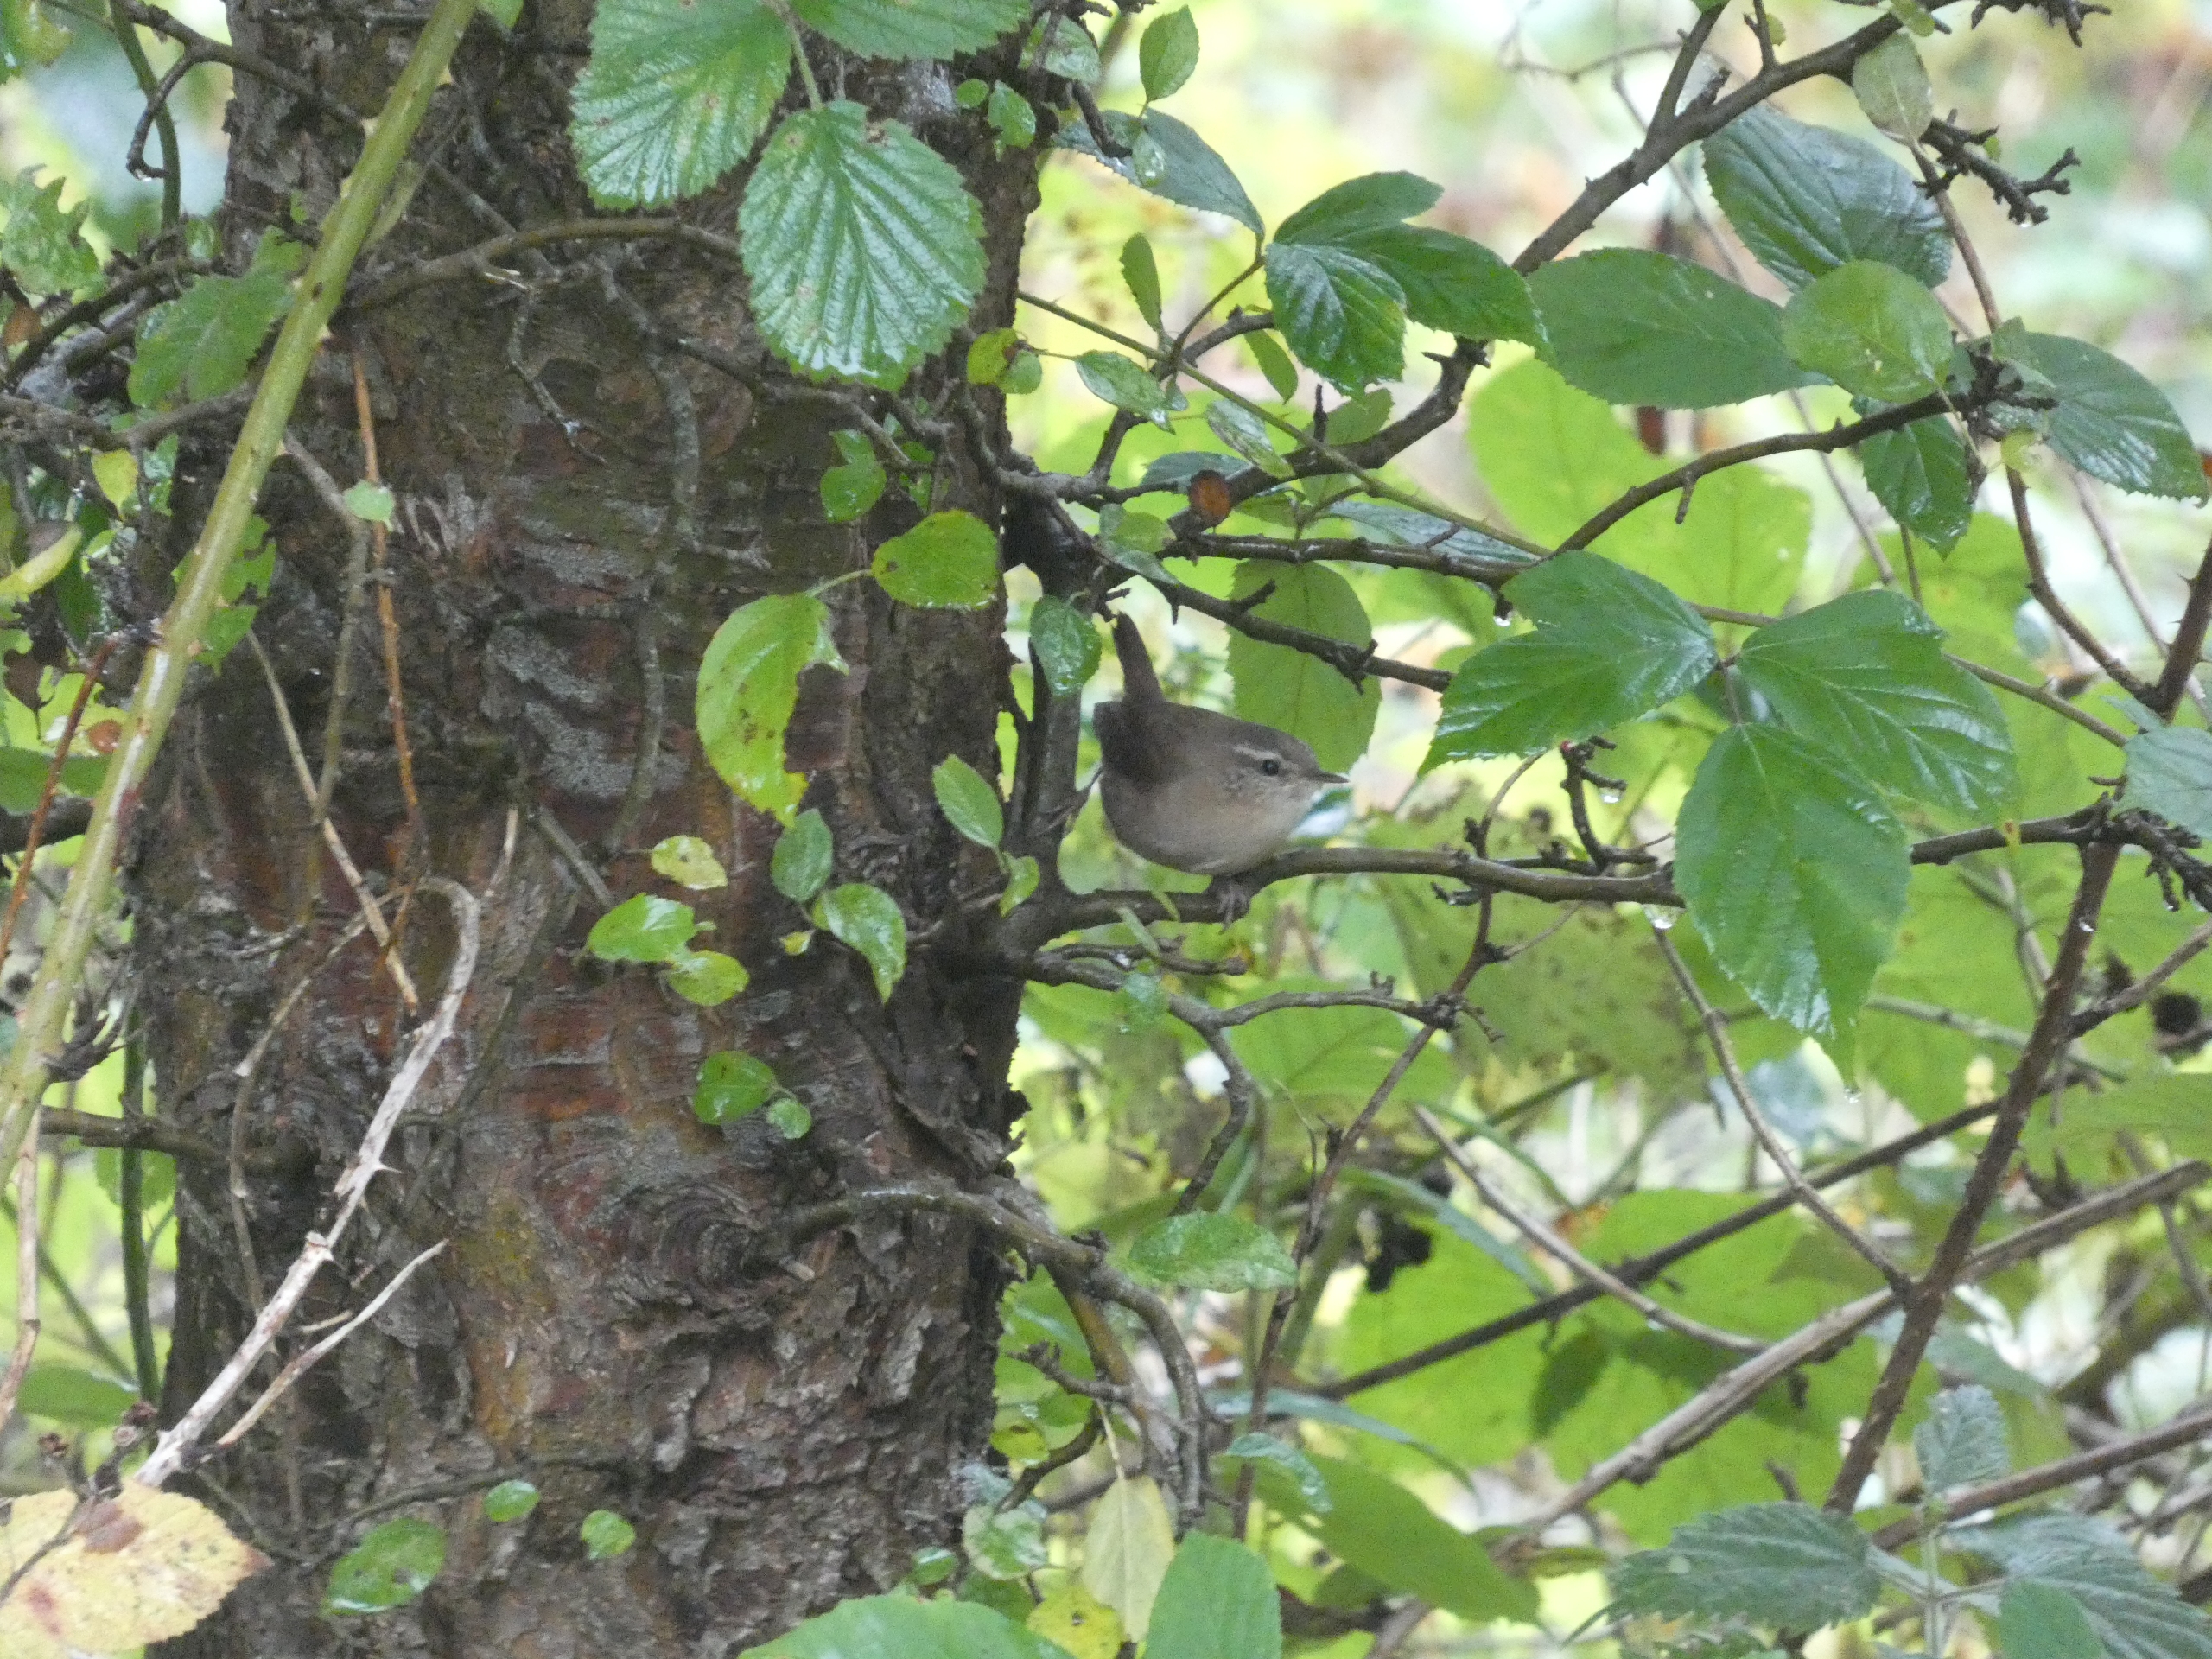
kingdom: Animalia
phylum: Chordata
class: Aves
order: Passeriformes
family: Troglodytidae
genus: Troglodytes
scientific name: Troglodytes troglodytes
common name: Gærdesmutte
